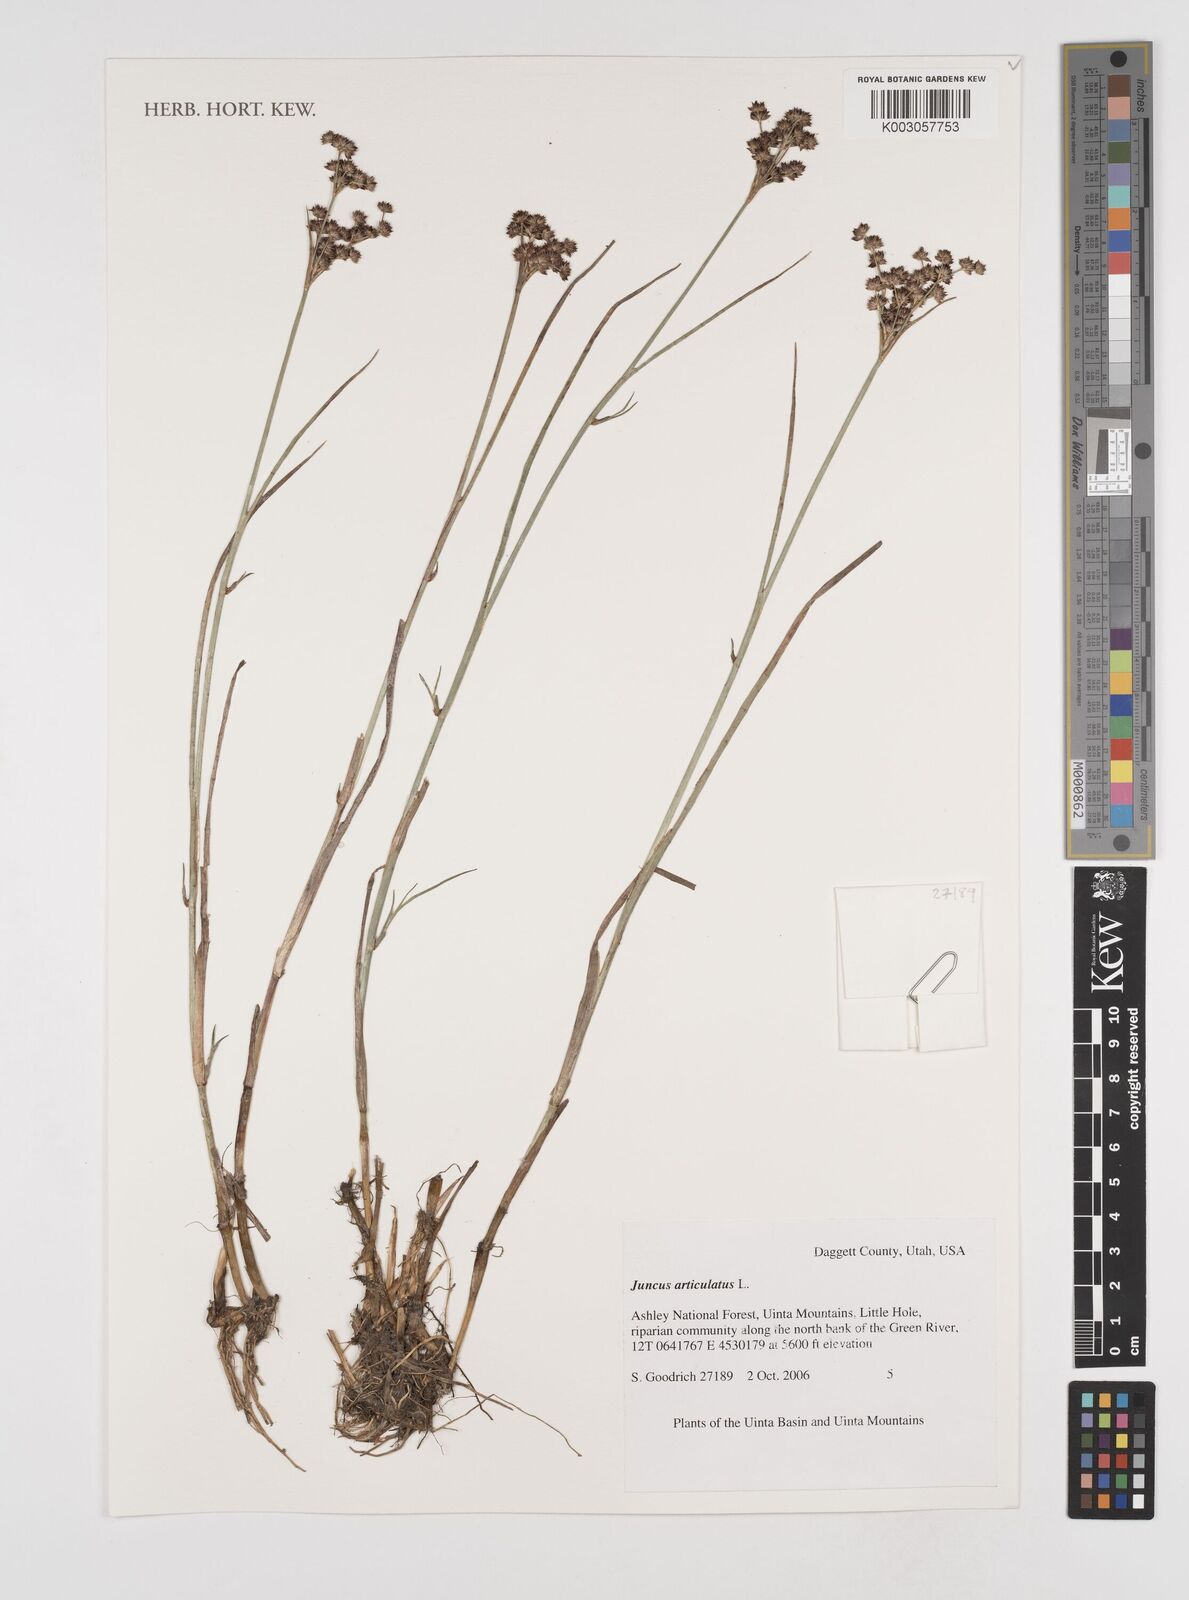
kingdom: Plantae
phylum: Tracheophyta
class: Liliopsida
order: Poales
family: Juncaceae
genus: Juncus
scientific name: Juncus articulatus
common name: Jointed rush
